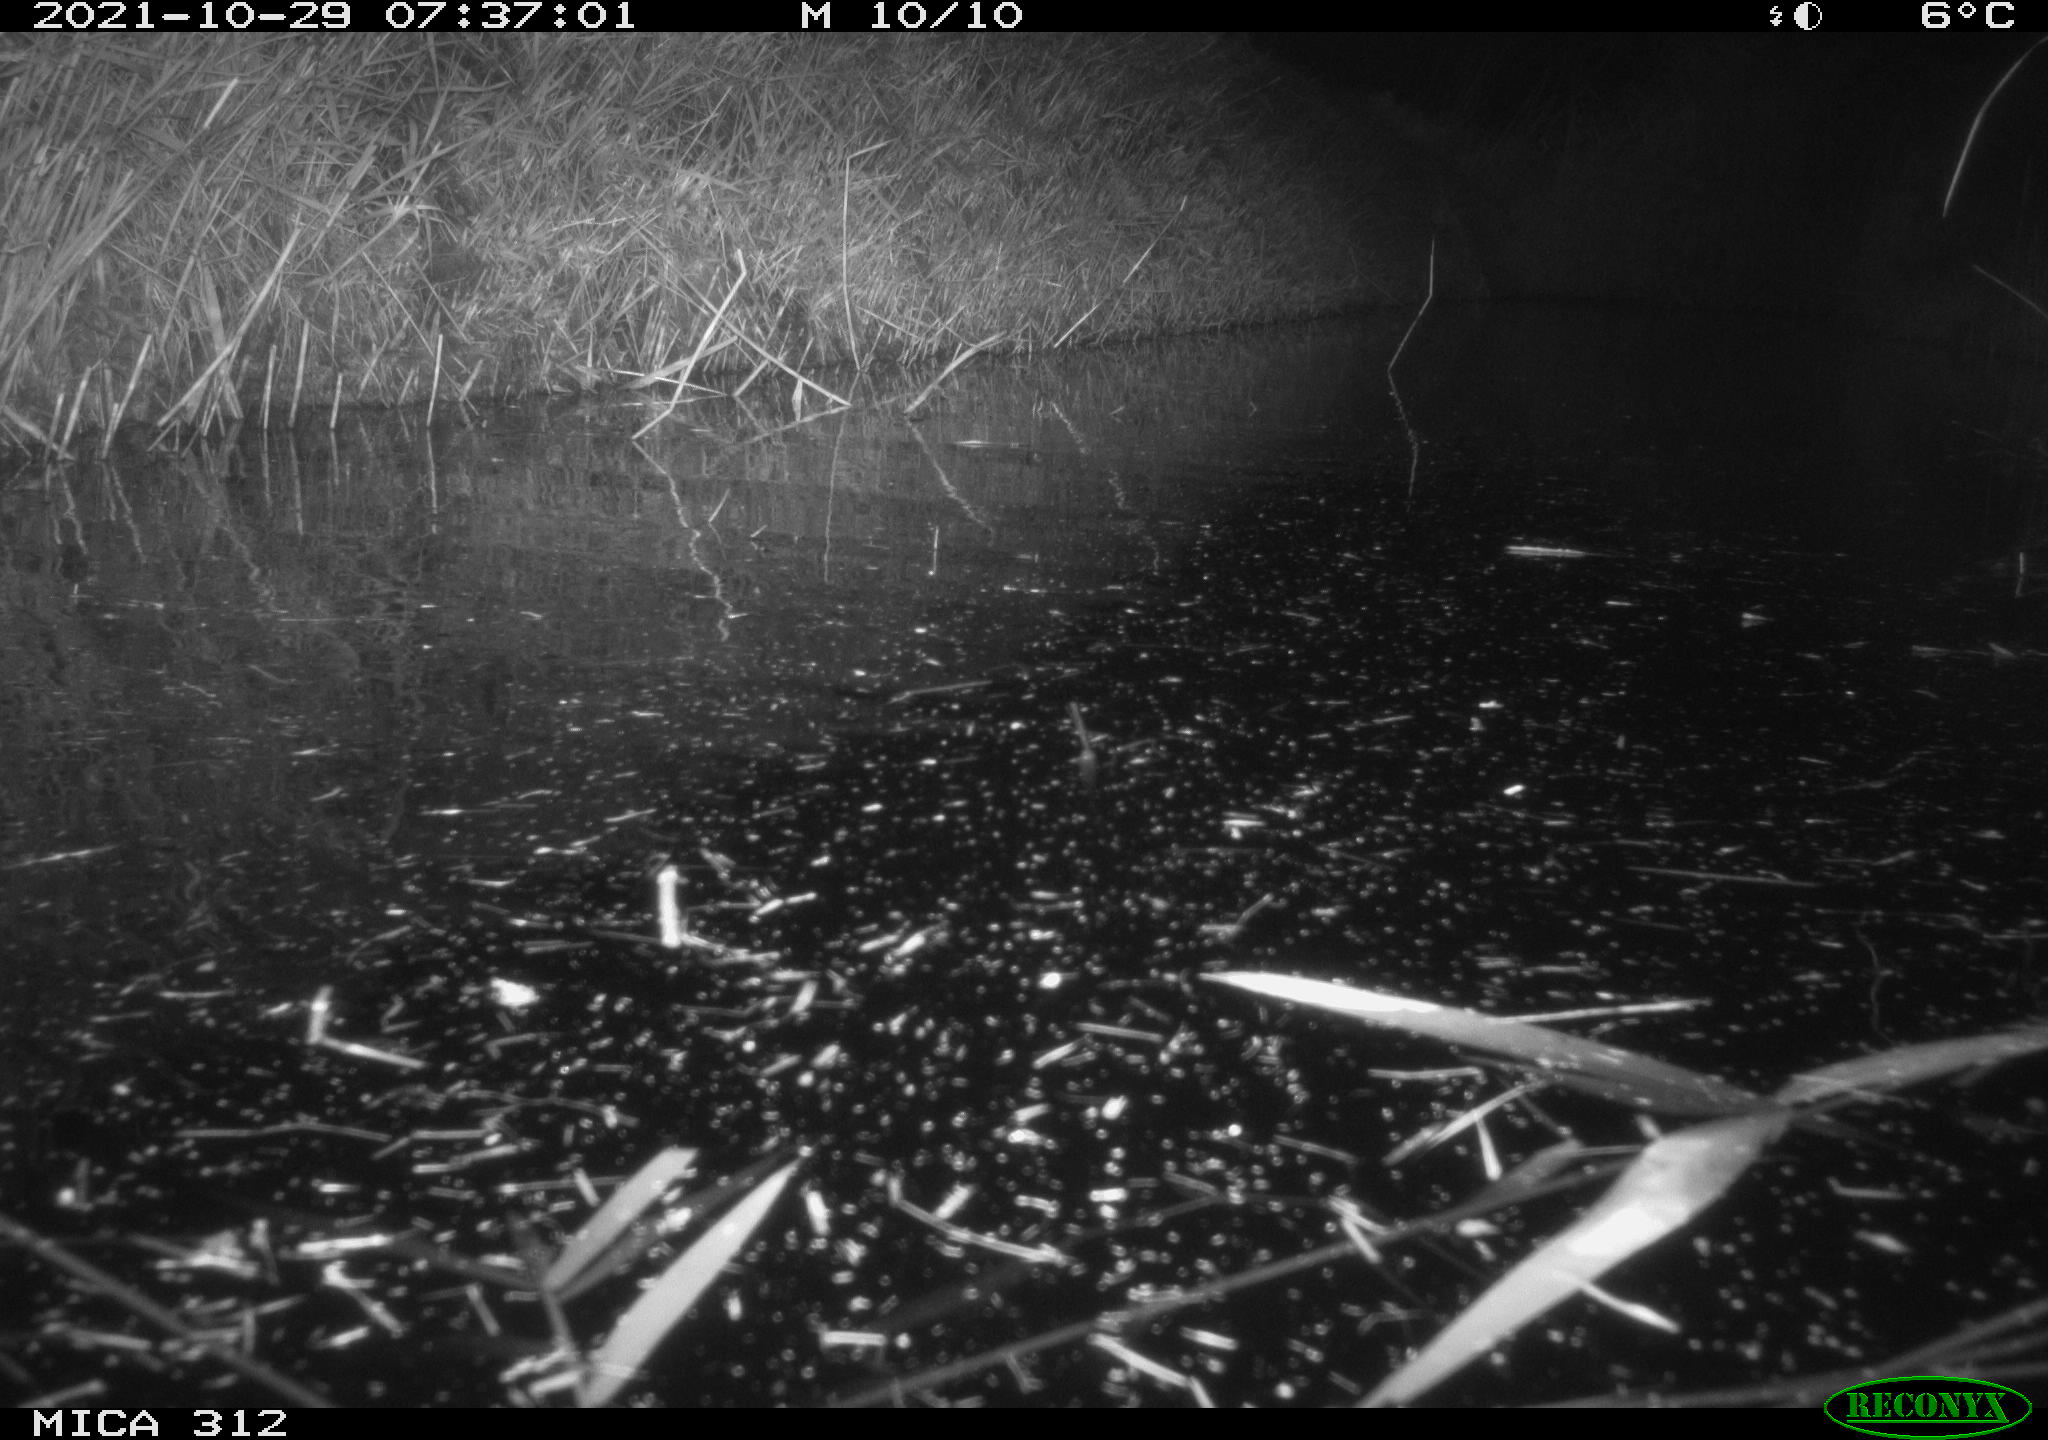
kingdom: Animalia
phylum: Chordata
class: Mammalia
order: Rodentia
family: Muridae
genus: Rattus
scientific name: Rattus norvegicus
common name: Brown rat
